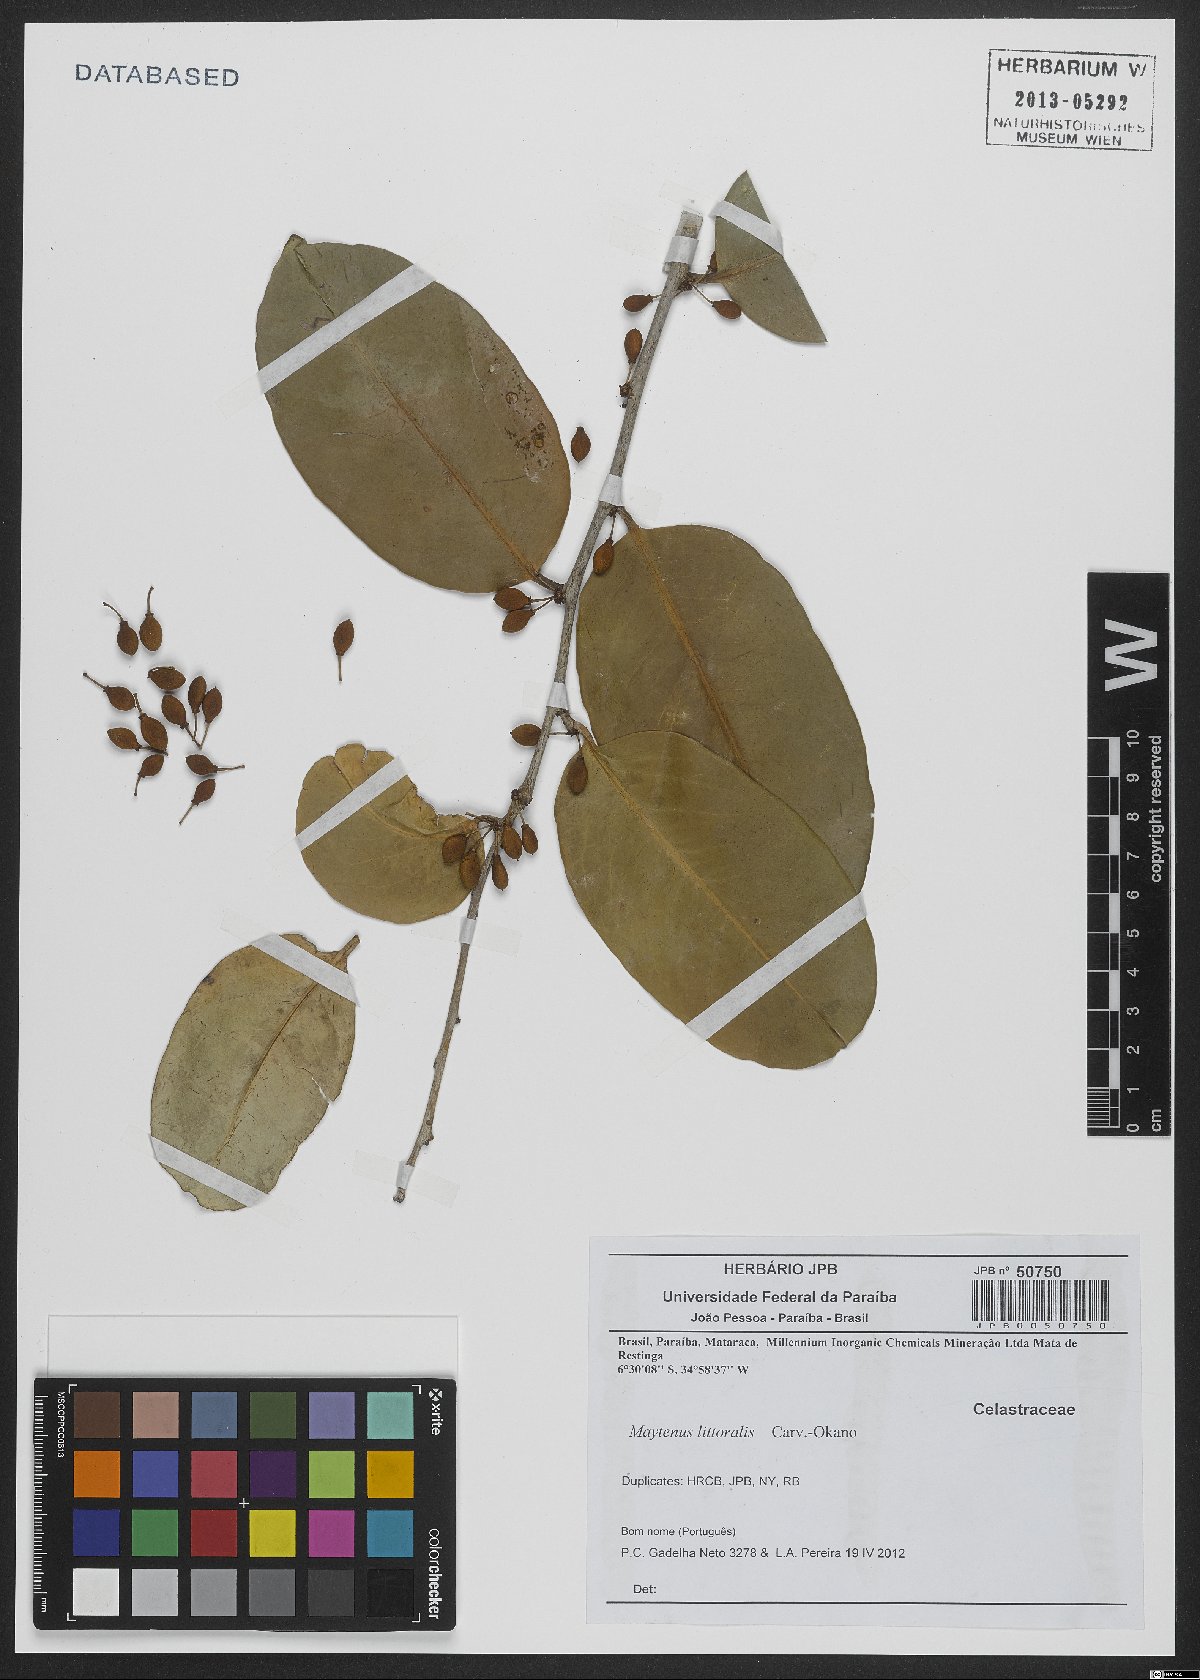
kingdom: Plantae
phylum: Tracheophyta
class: Magnoliopsida
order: Celastrales
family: Celastraceae
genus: Monteverdia
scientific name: Monteverdia littoralis
